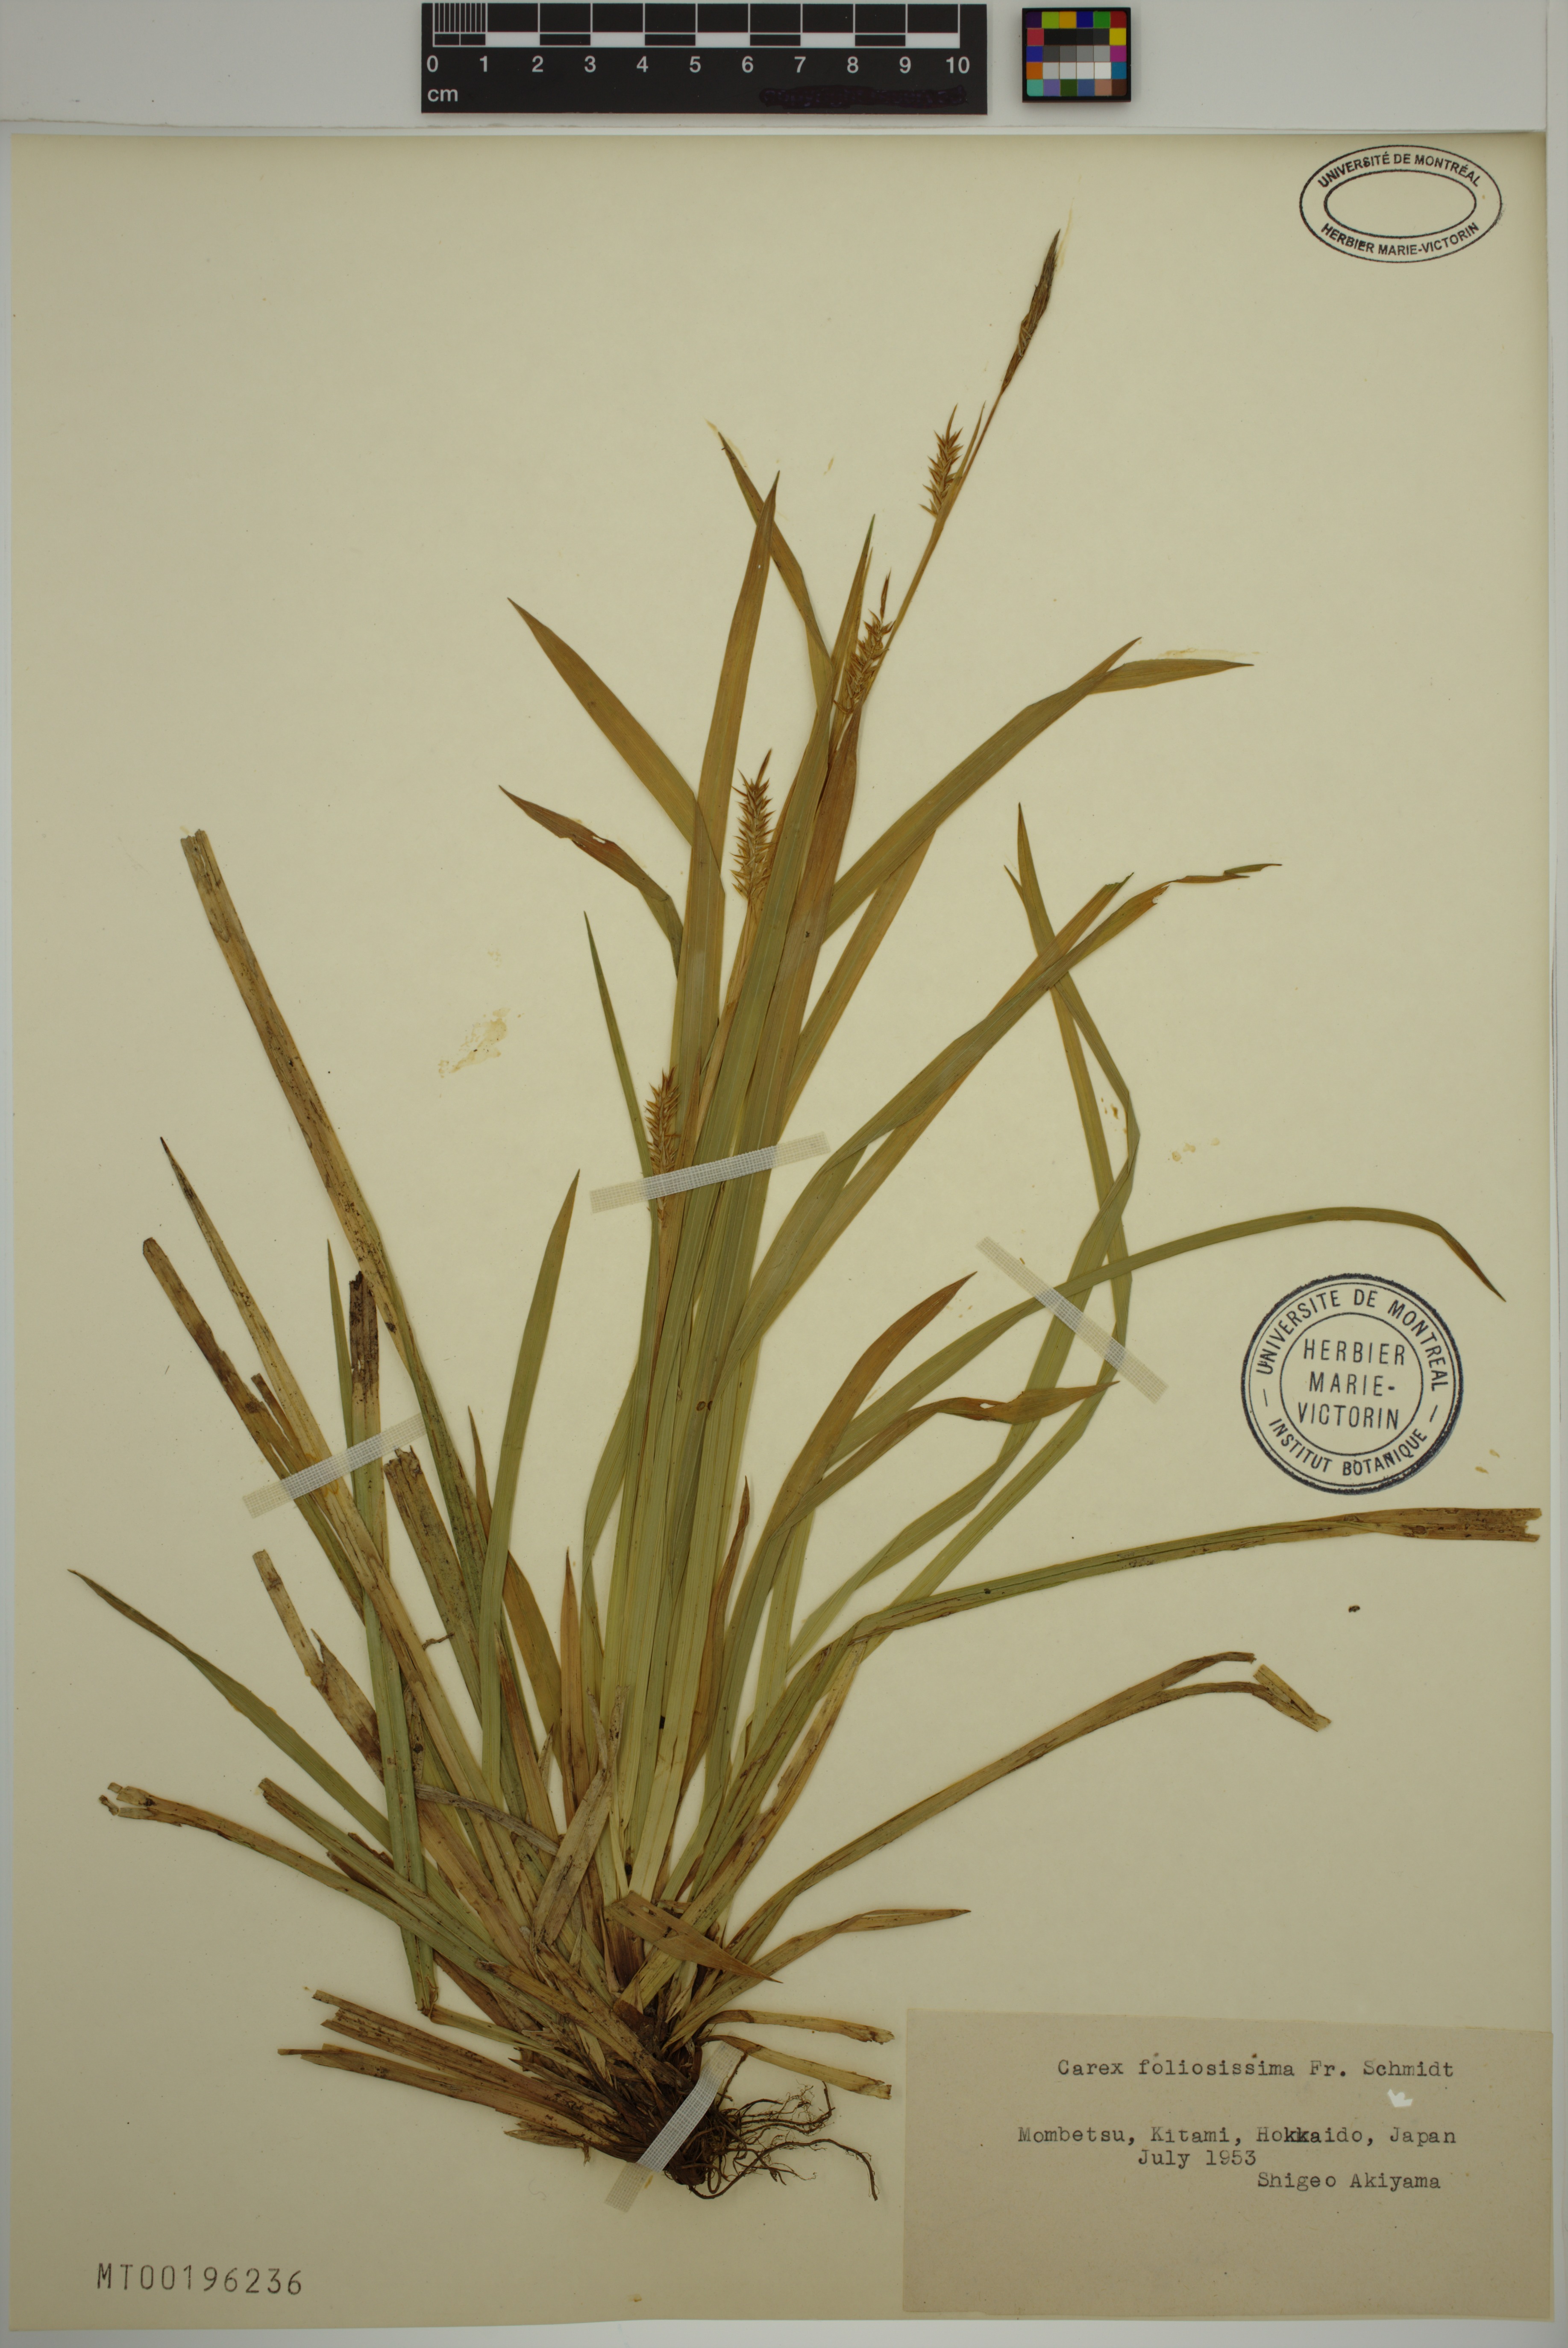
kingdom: Plantae
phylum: Tracheophyta
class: Liliopsida
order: Poales
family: Cyperaceae
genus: Carex
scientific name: Carex foliosissima
